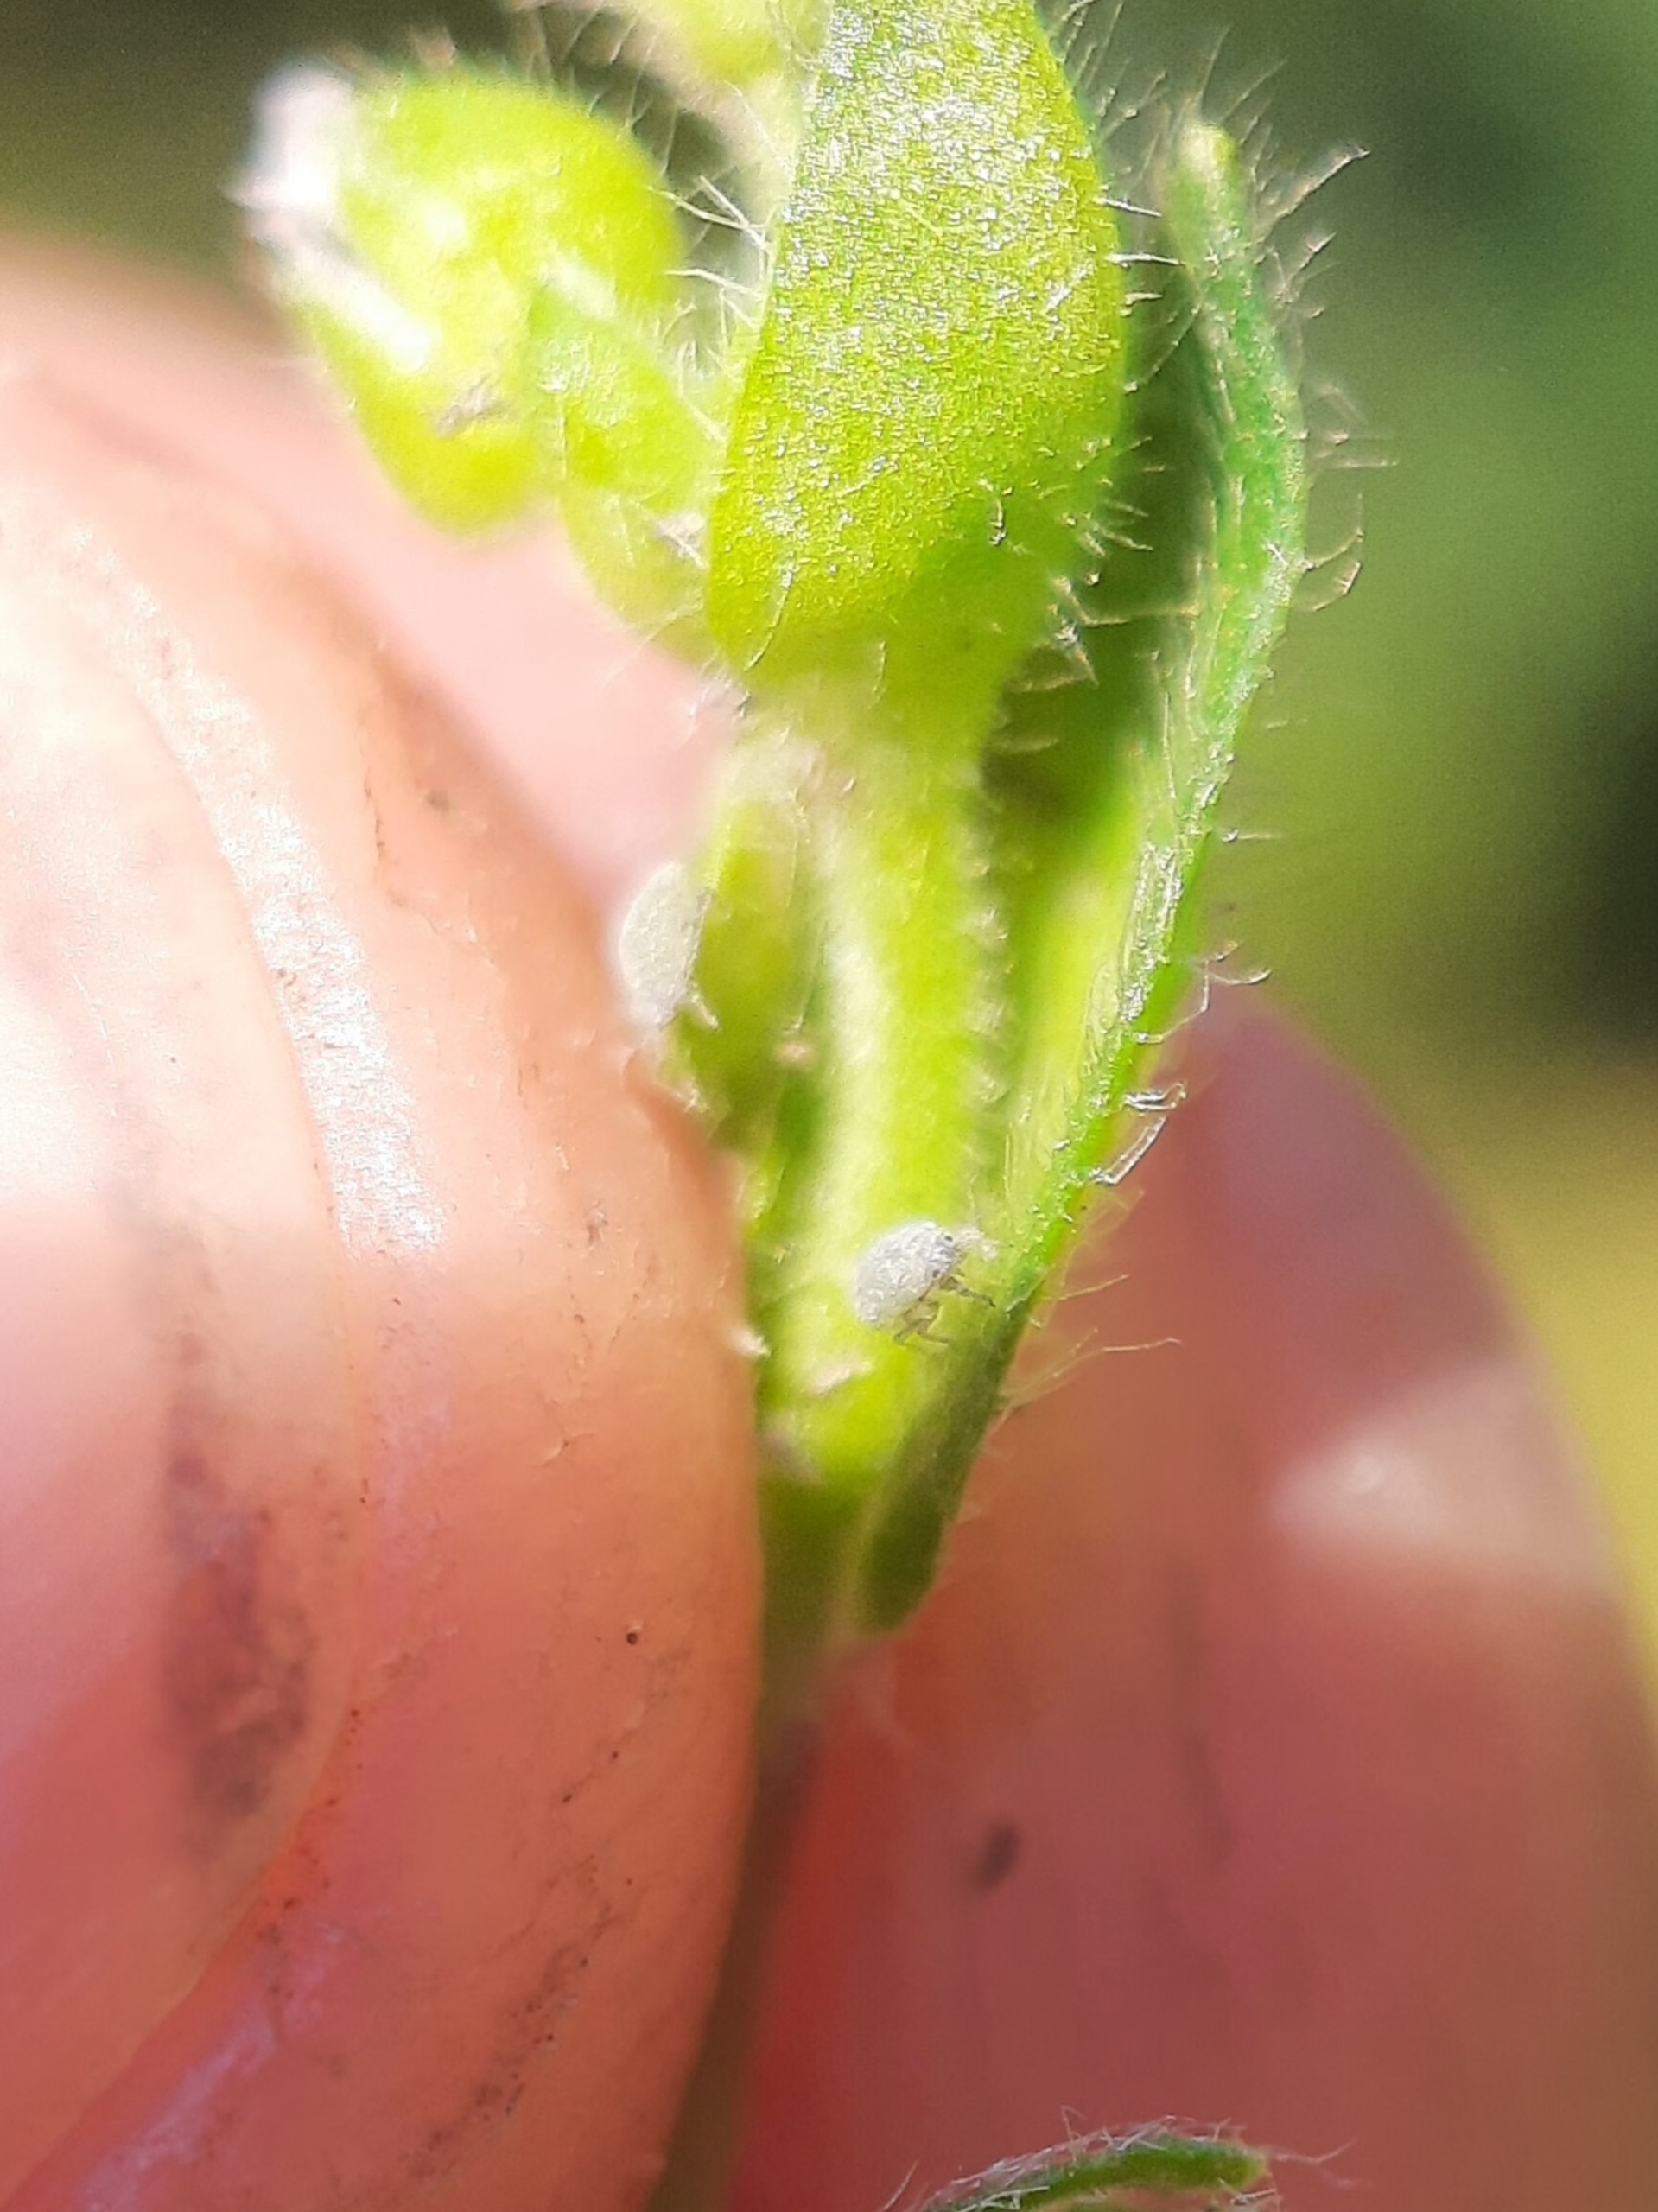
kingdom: Animalia
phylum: Arthropoda
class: Insecta
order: Hemiptera
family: Aphididae
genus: Aphis
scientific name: Aphis cerastii
